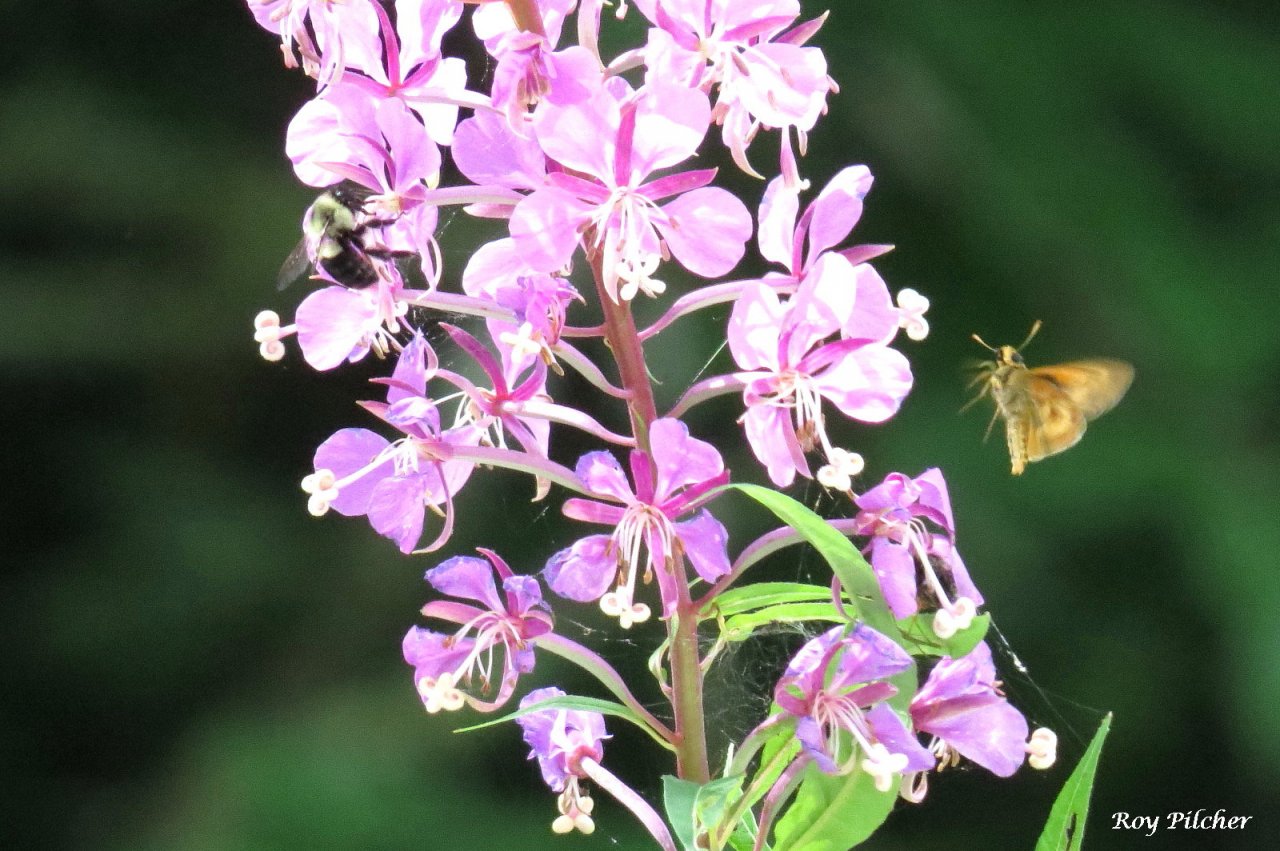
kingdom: Animalia
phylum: Arthropoda
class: Insecta
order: Lepidoptera
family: Hesperiidae
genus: Polites
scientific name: Polites
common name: Long Dash Skipper
